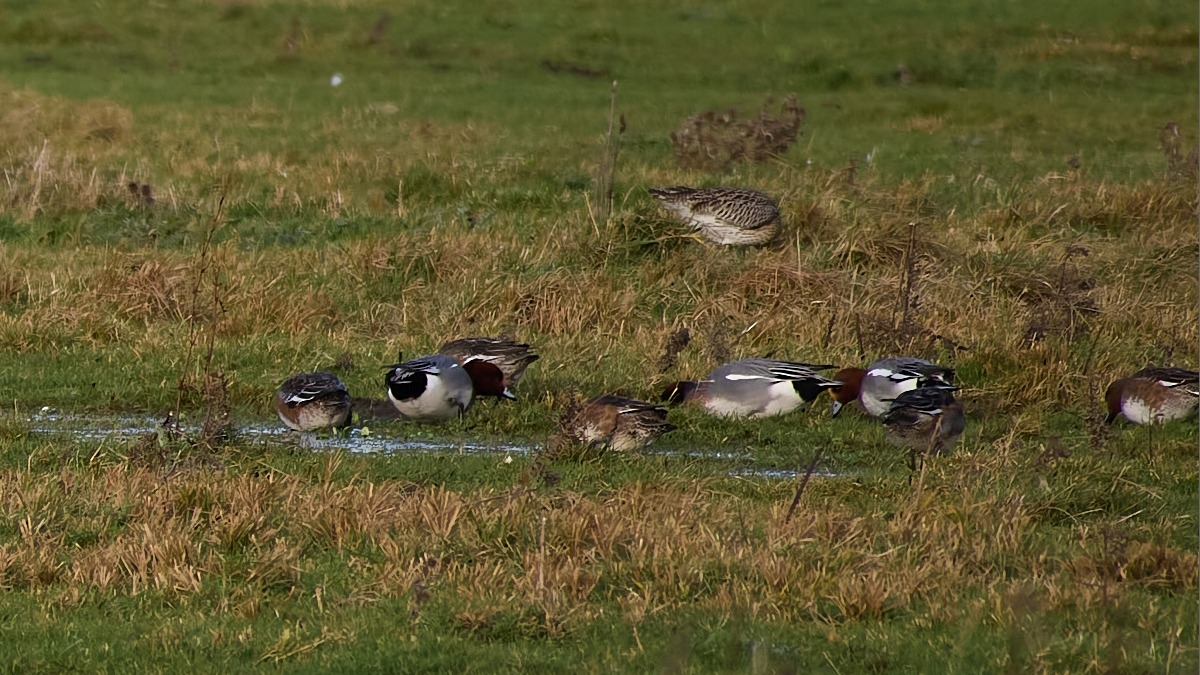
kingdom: Animalia
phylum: Chordata
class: Aves
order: Anseriformes
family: Anatidae
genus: Mareca
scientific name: Mareca penelope
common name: Pibeand
